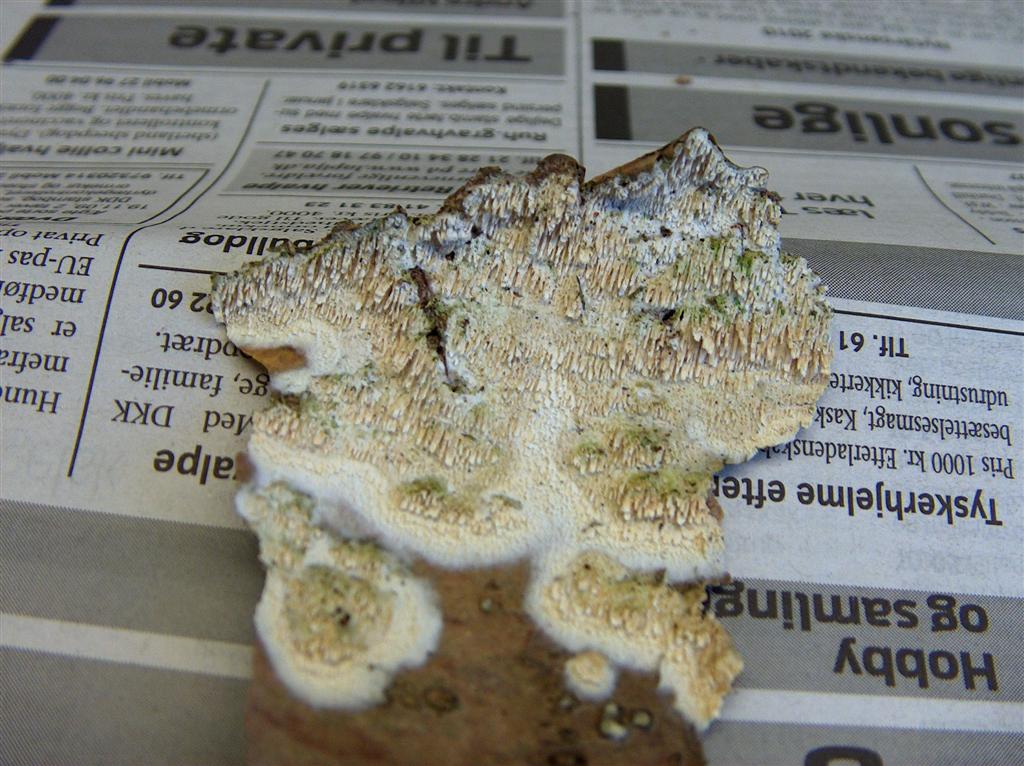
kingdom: Fungi
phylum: Basidiomycota
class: Agaricomycetes
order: Hymenochaetales
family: Schizoporaceae
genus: Schizopora
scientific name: Schizopora paradoxa
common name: hvid tandsvamp
